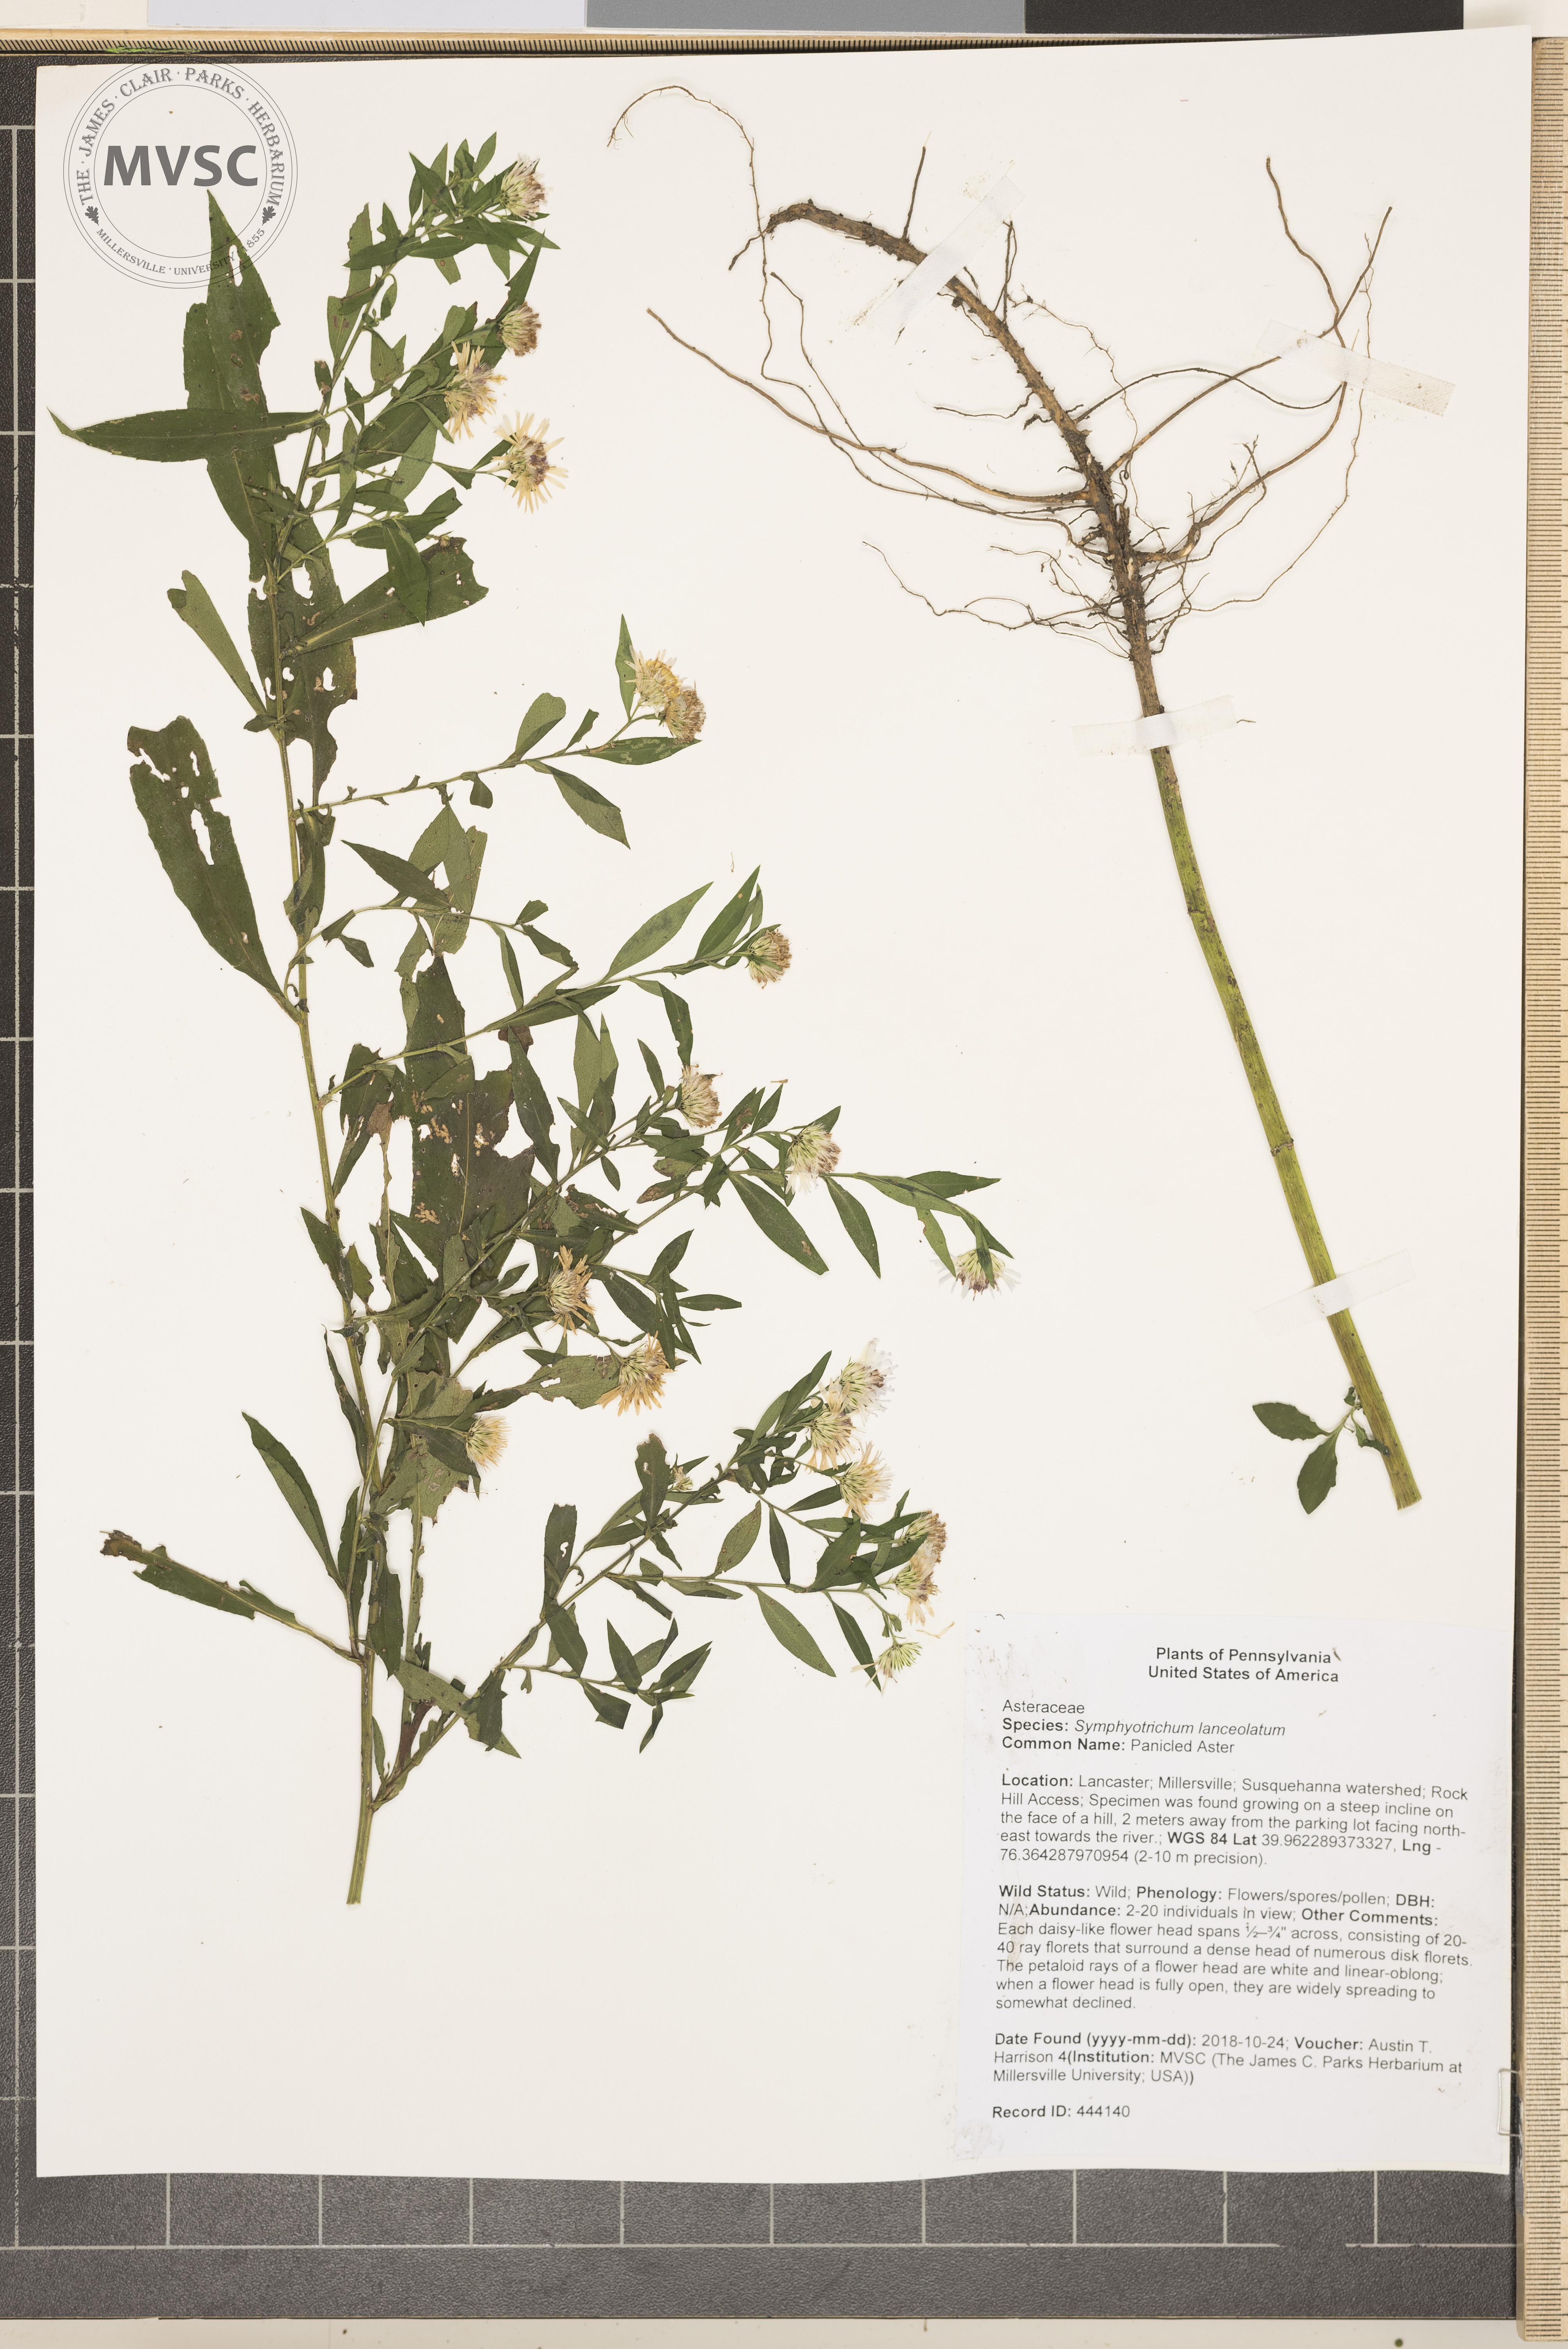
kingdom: Plantae
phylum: Tracheophyta
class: Magnoliopsida
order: Asterales
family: Asteraceae
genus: Symphyotrichum
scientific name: Symphyotrichum lanceolatum
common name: Panicled Aster
